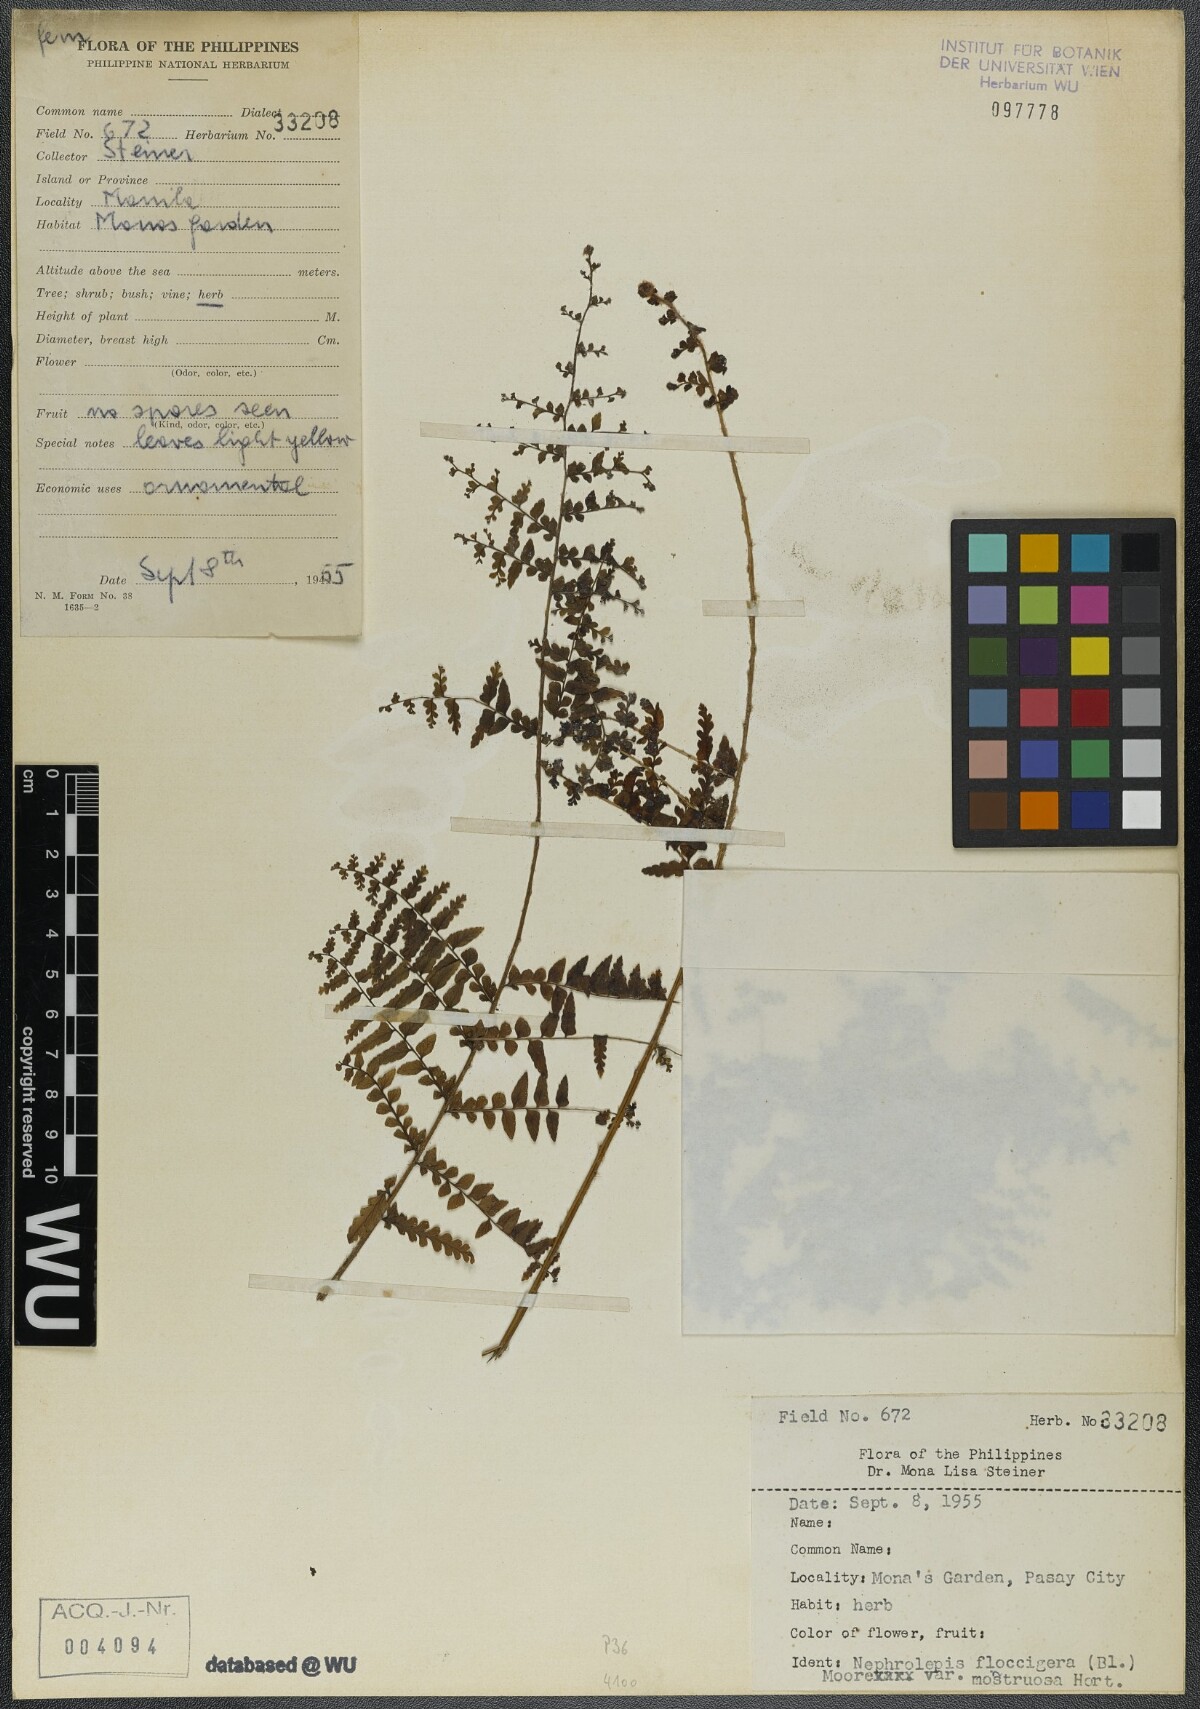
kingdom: Plantae
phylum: Tracheophyta
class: Polypodiopsida
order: Polypodiales
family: Nephrolepidaceae
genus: Nephrolepis
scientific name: Nephrolepis brownii
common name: Asian swordfern
